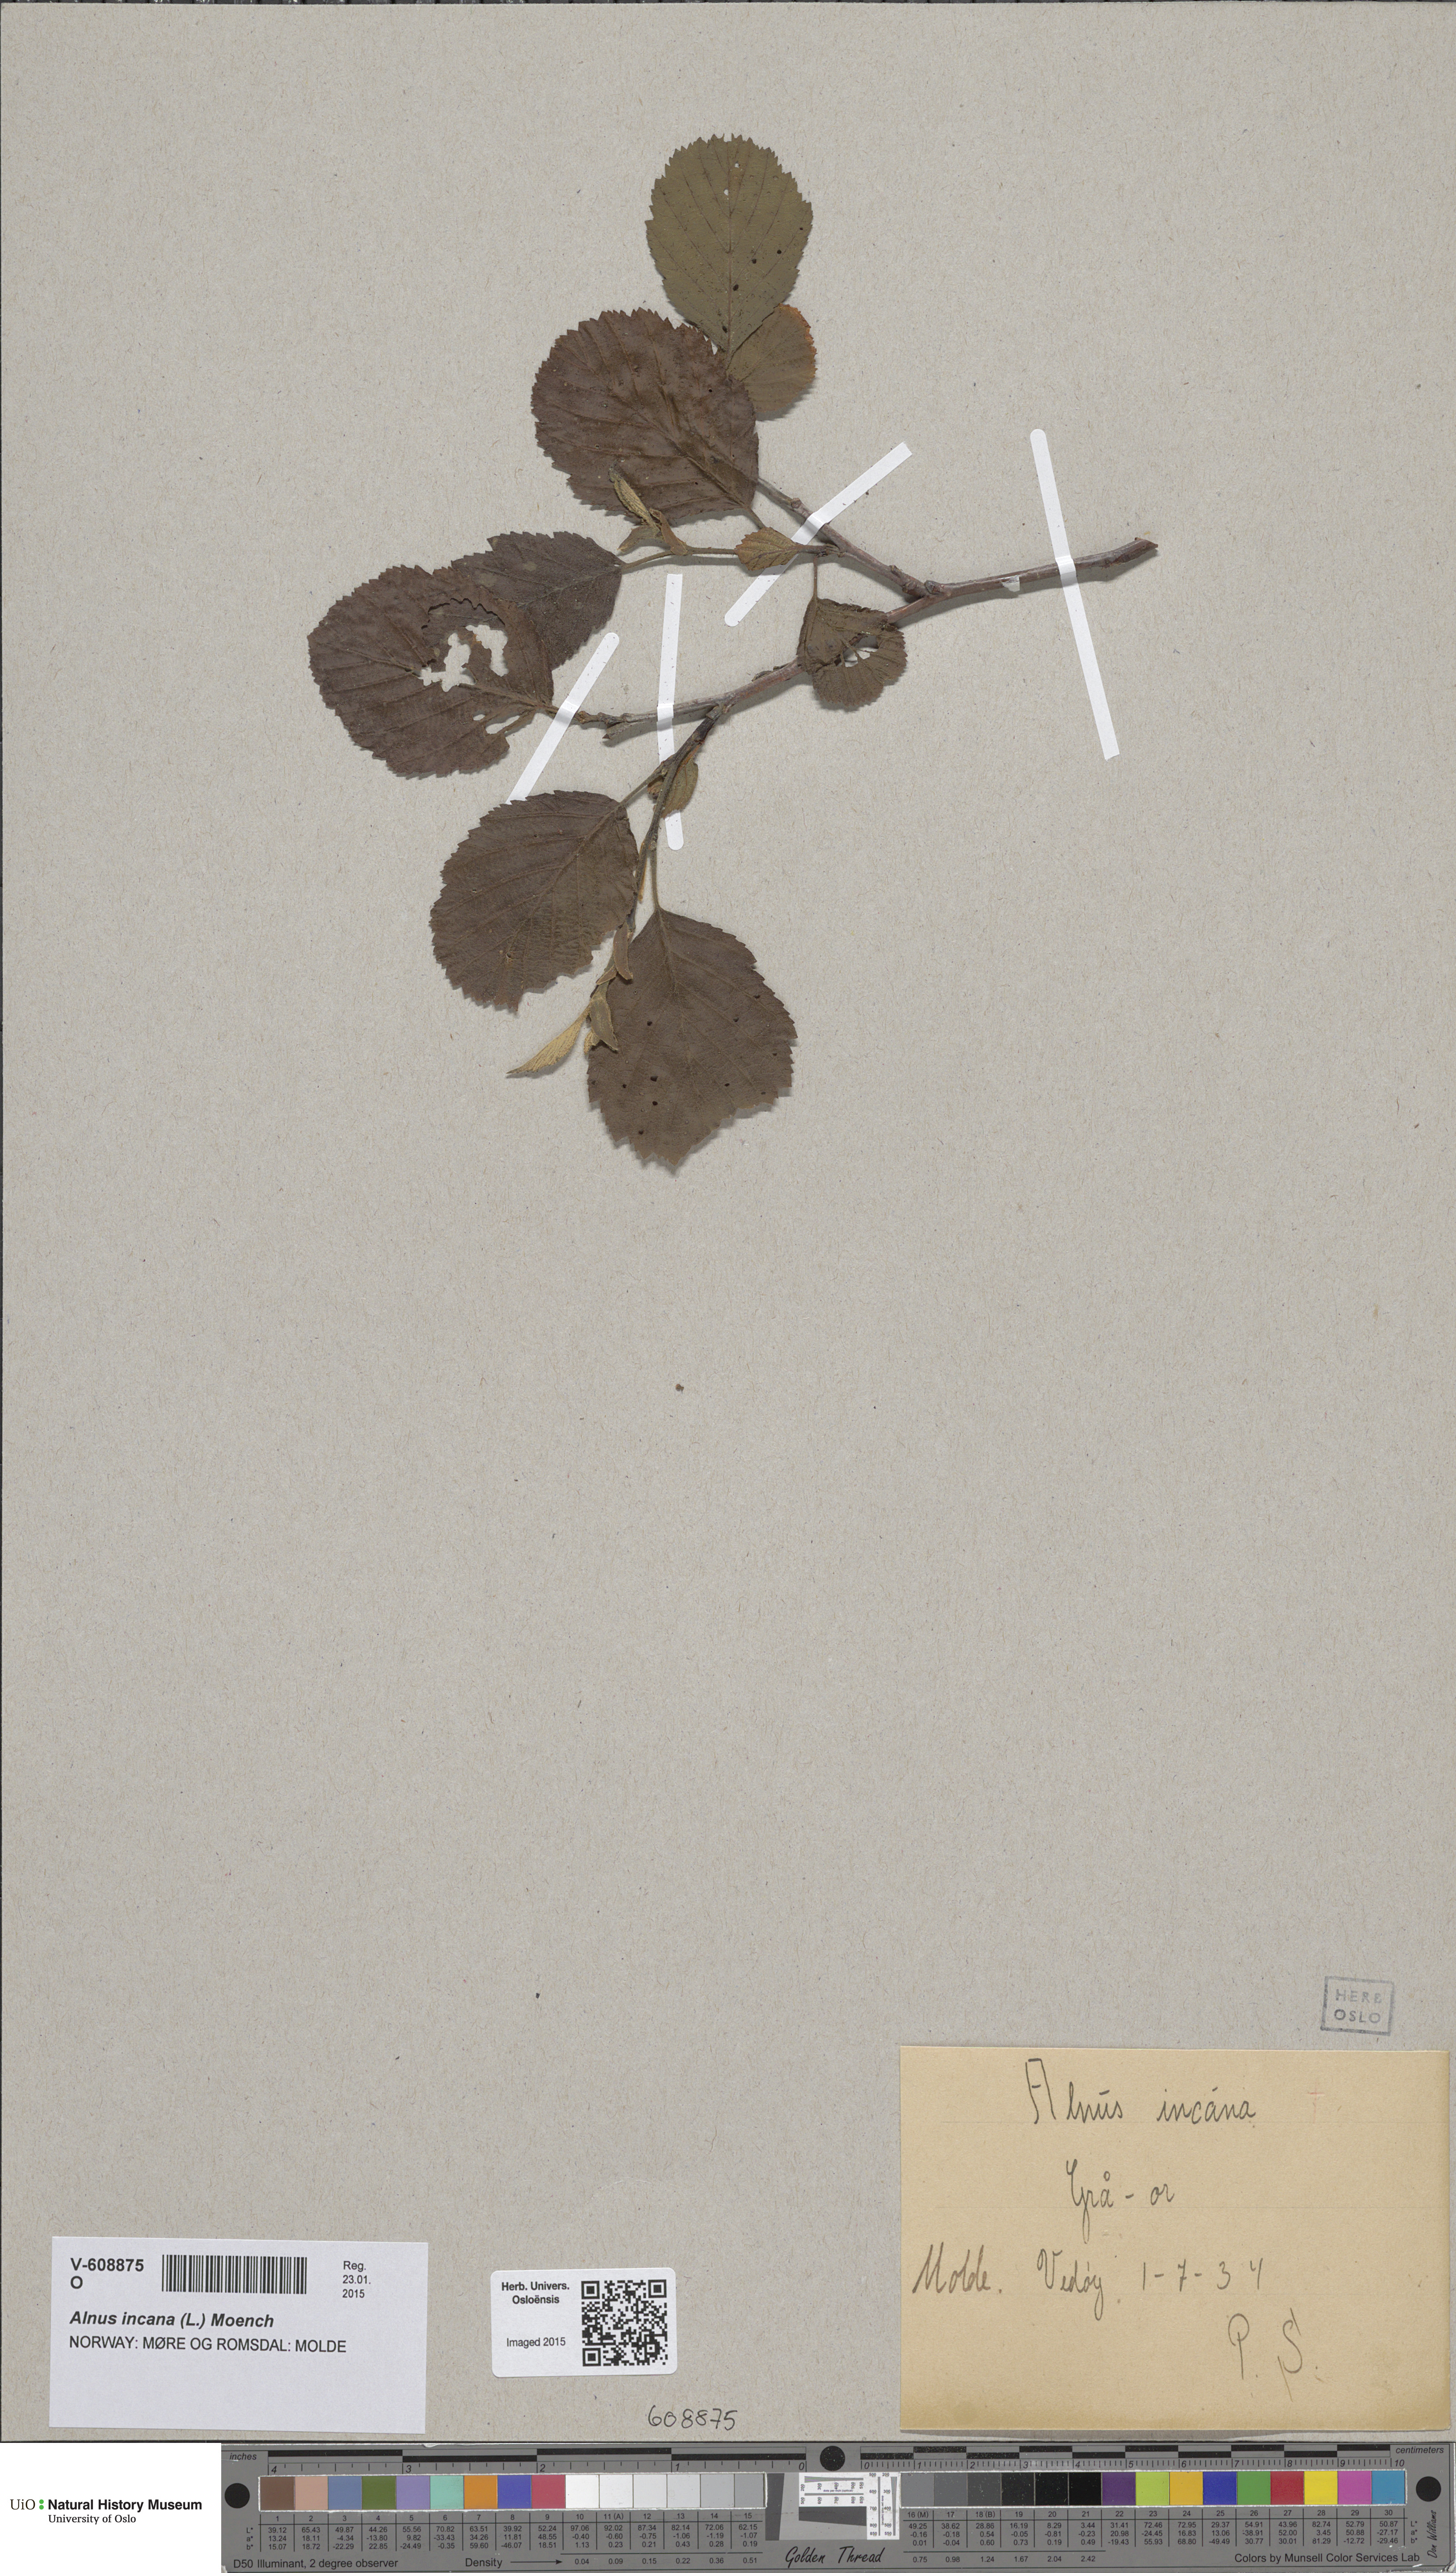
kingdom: Plantae
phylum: Tracheophyta
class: Magnoliopsida
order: Fagales
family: Betulaceae
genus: Alnus
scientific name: Alnus incana
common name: Grey alder
